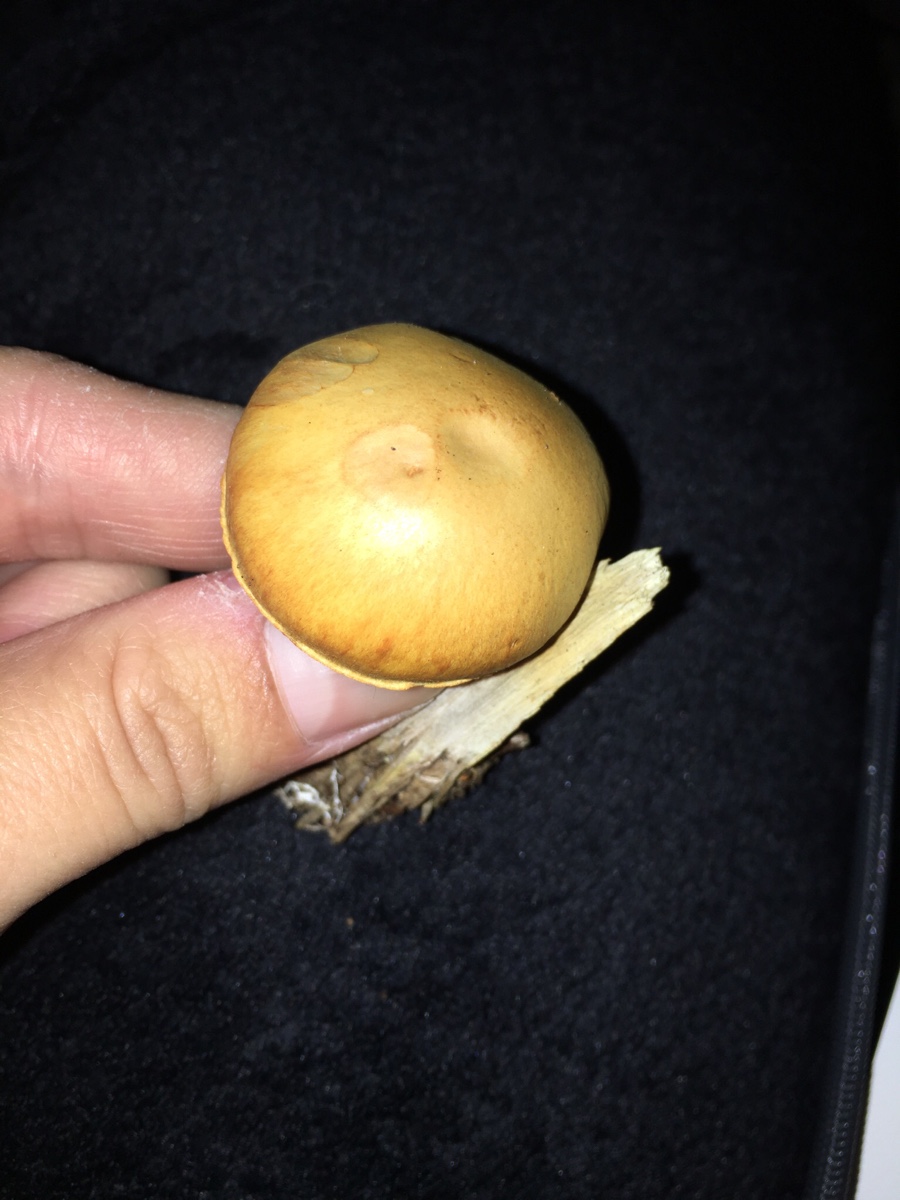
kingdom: Fungi
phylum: Basidiomycota
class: Agaricomycetes
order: Agaricales
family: Hymenogastraceae
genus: Gymnopilus
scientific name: Gymnopilus penetrans
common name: plettet flammehat
